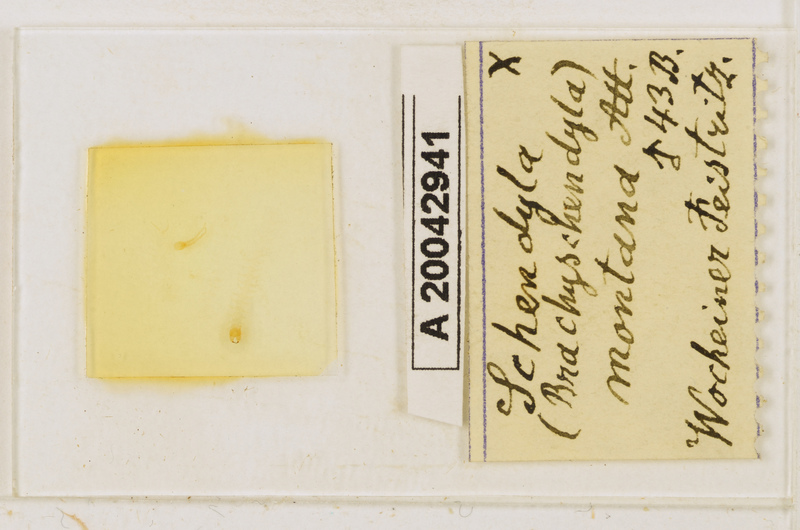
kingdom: Animalia
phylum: Arthropoda
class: Chilopoda
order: Geophilomorpha
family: Schendylidae
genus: Schendyla
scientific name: Schendyla montana
